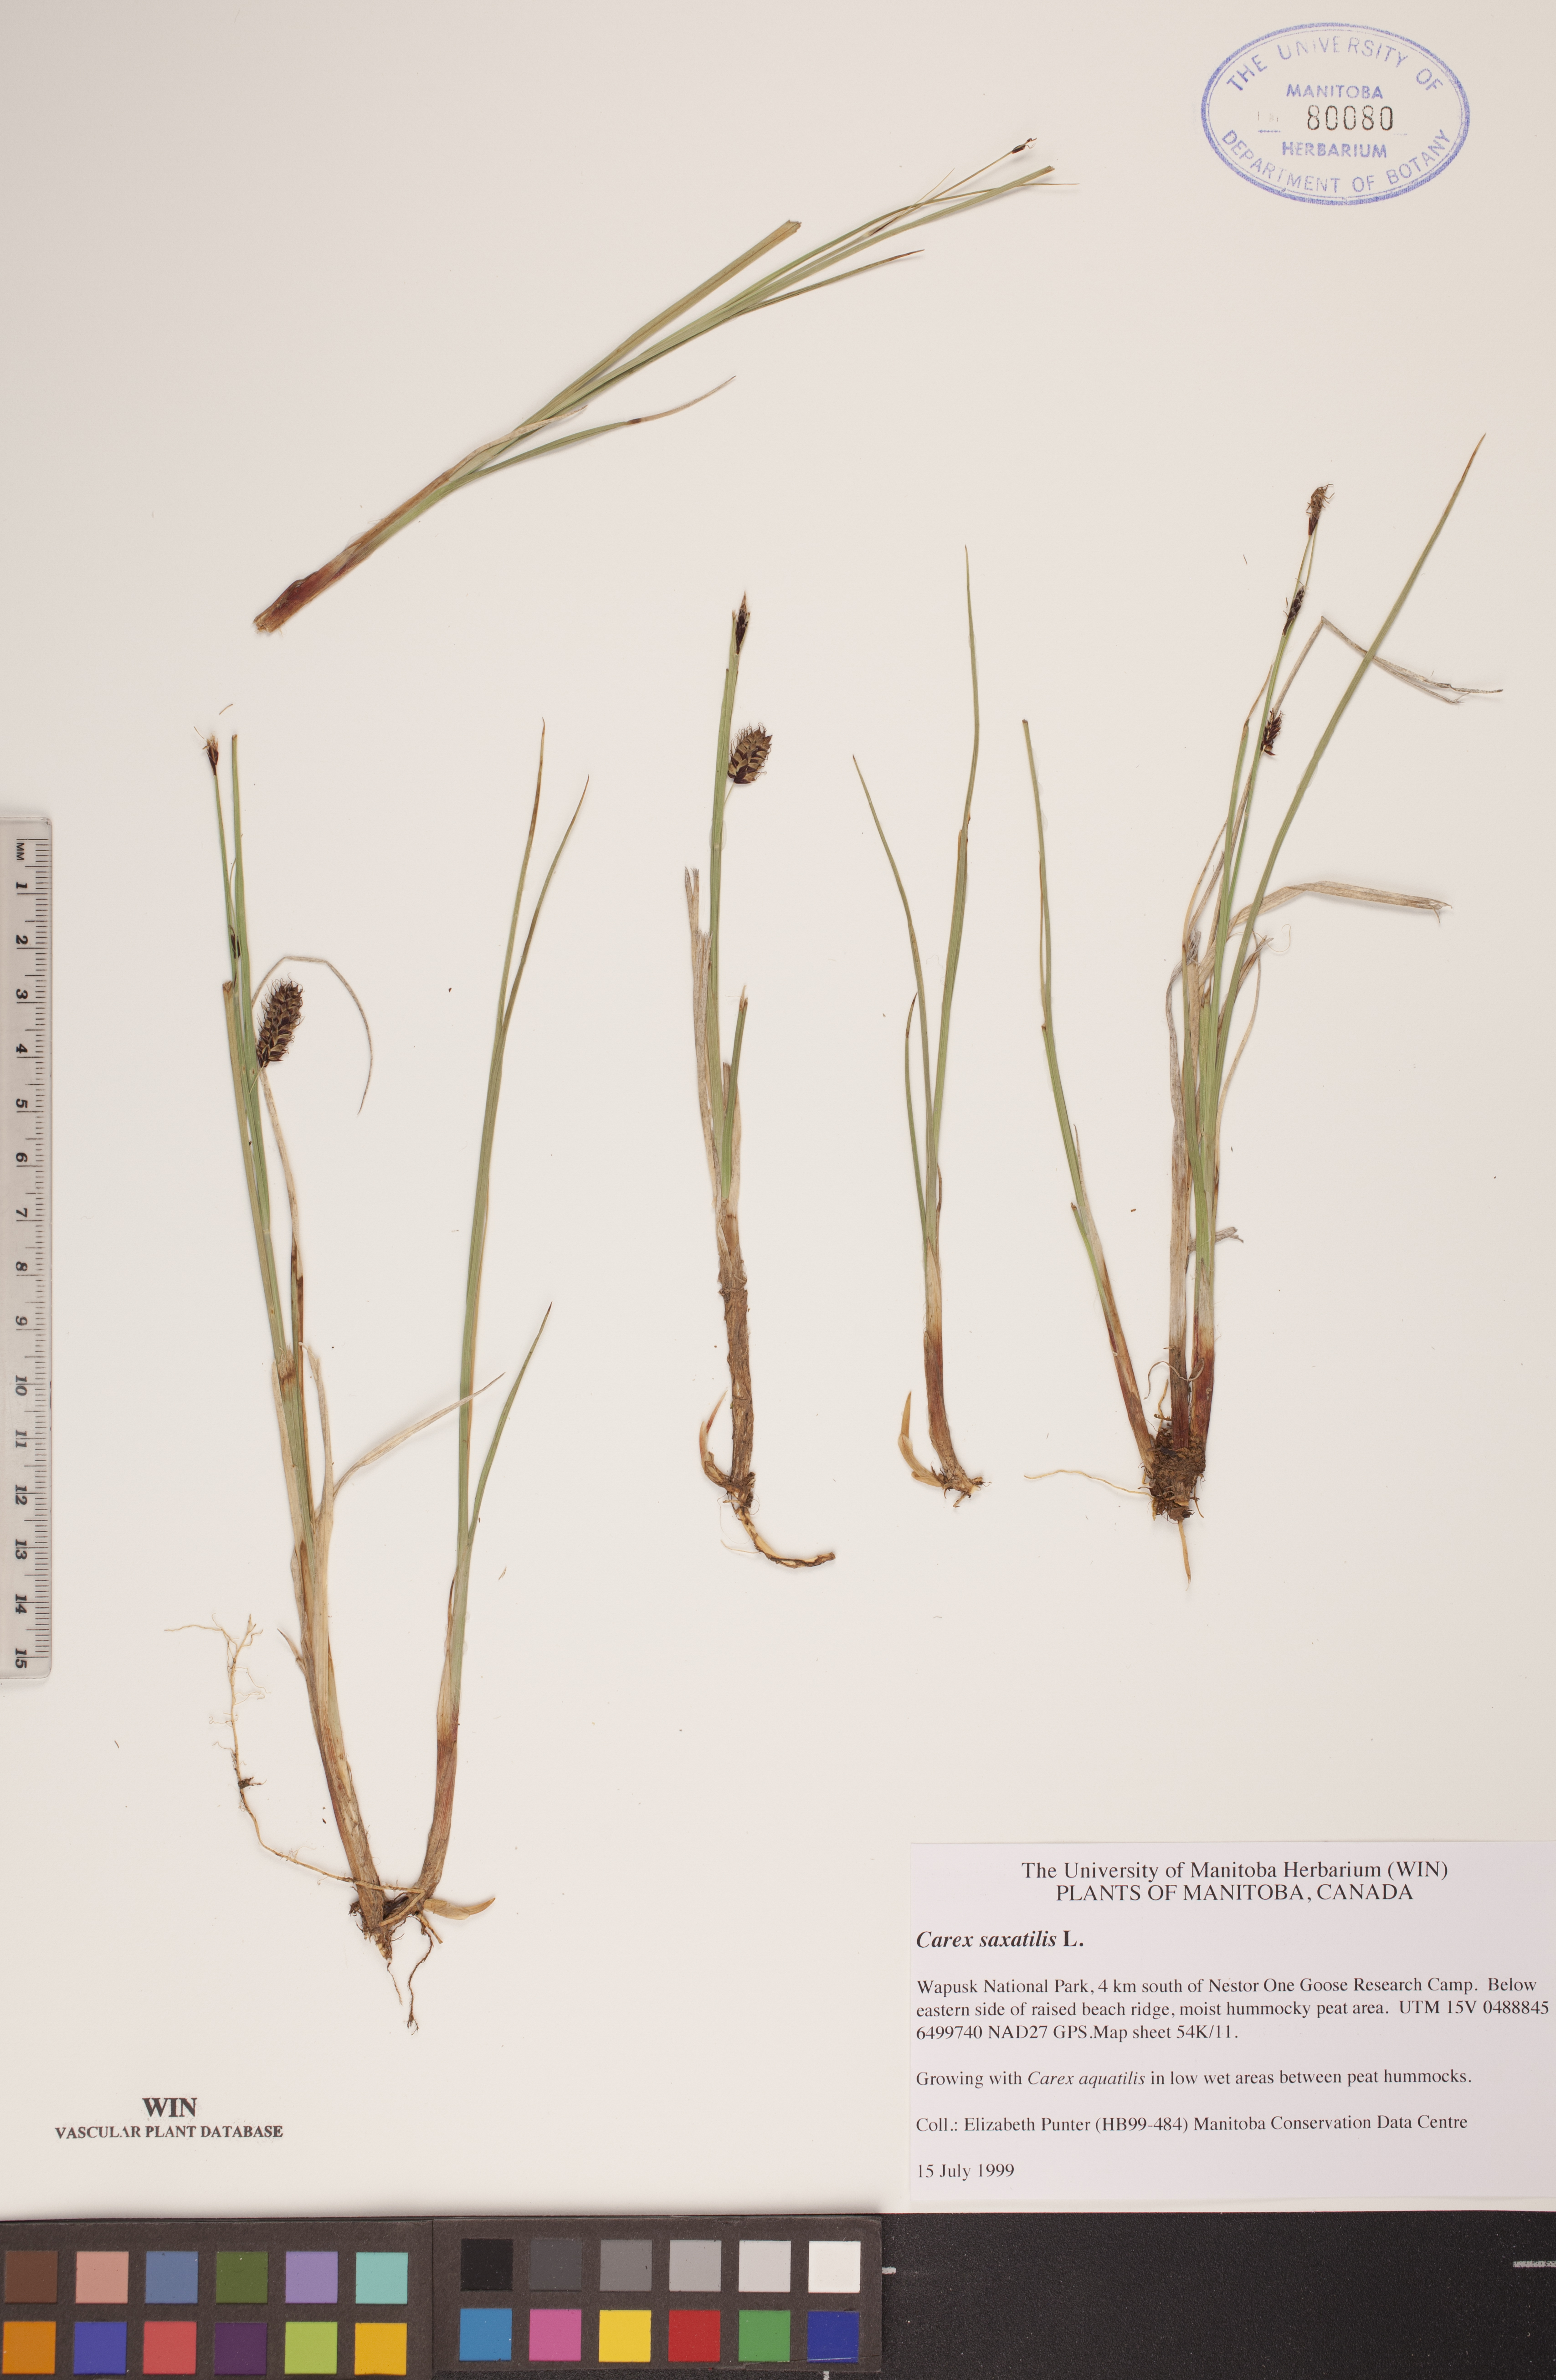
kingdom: Plantae
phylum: Tracheophyta
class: Liliopsida
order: Poales
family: Cyperaceae
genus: Carex
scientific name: Carex saxatilis
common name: Russet sedge
